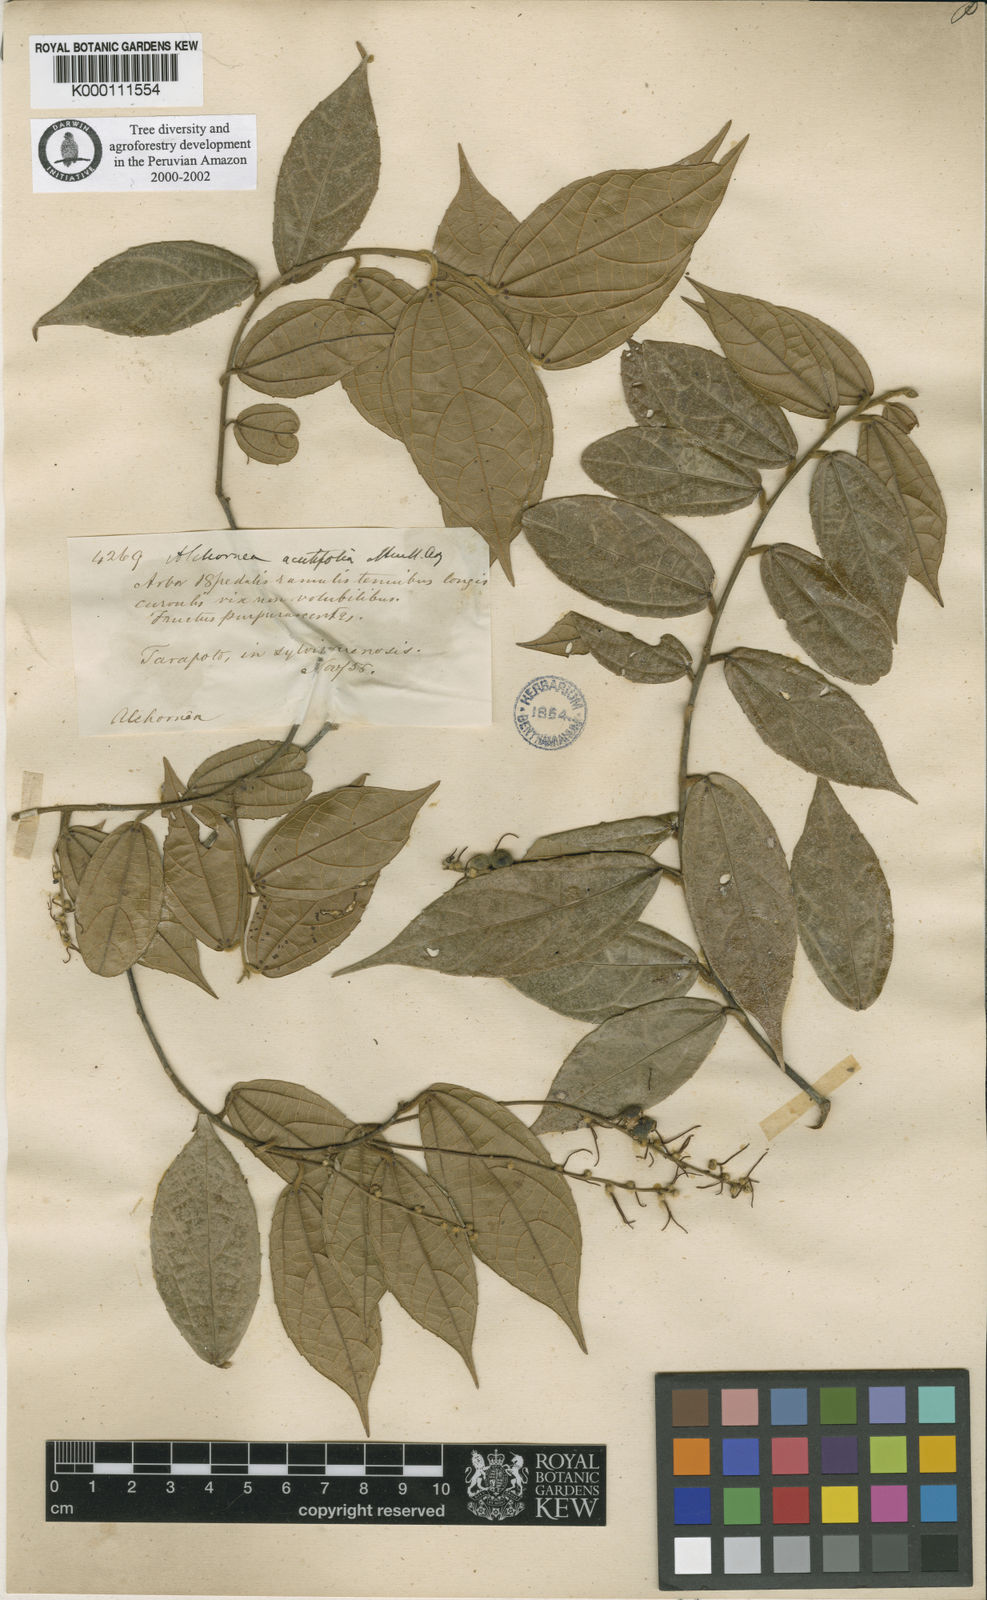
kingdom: Plantae
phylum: Tracheophyta
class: Magnoliopsida
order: Malpighiales
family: Euphorbiaceae
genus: Alchornea
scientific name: Alchornea
